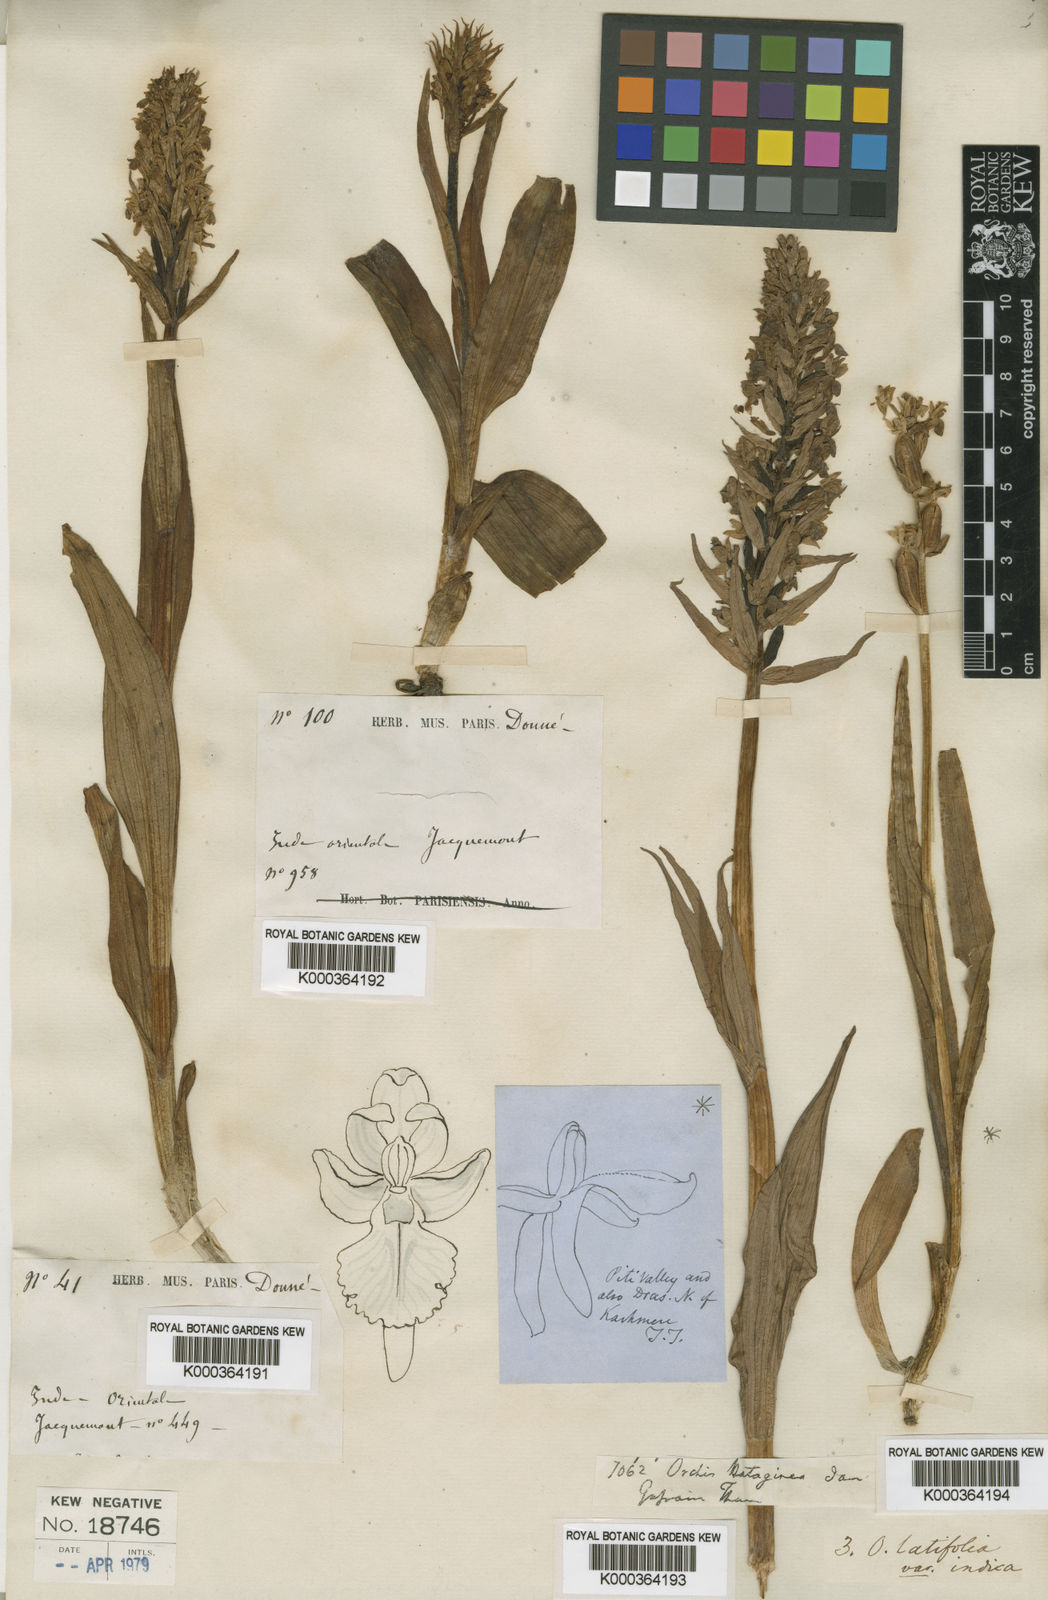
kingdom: Plantae
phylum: Tracheophyta
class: Liliopsida
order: Asparagales
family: Orchidaceae
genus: Dactylorhiza
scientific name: Dactylorhiza
